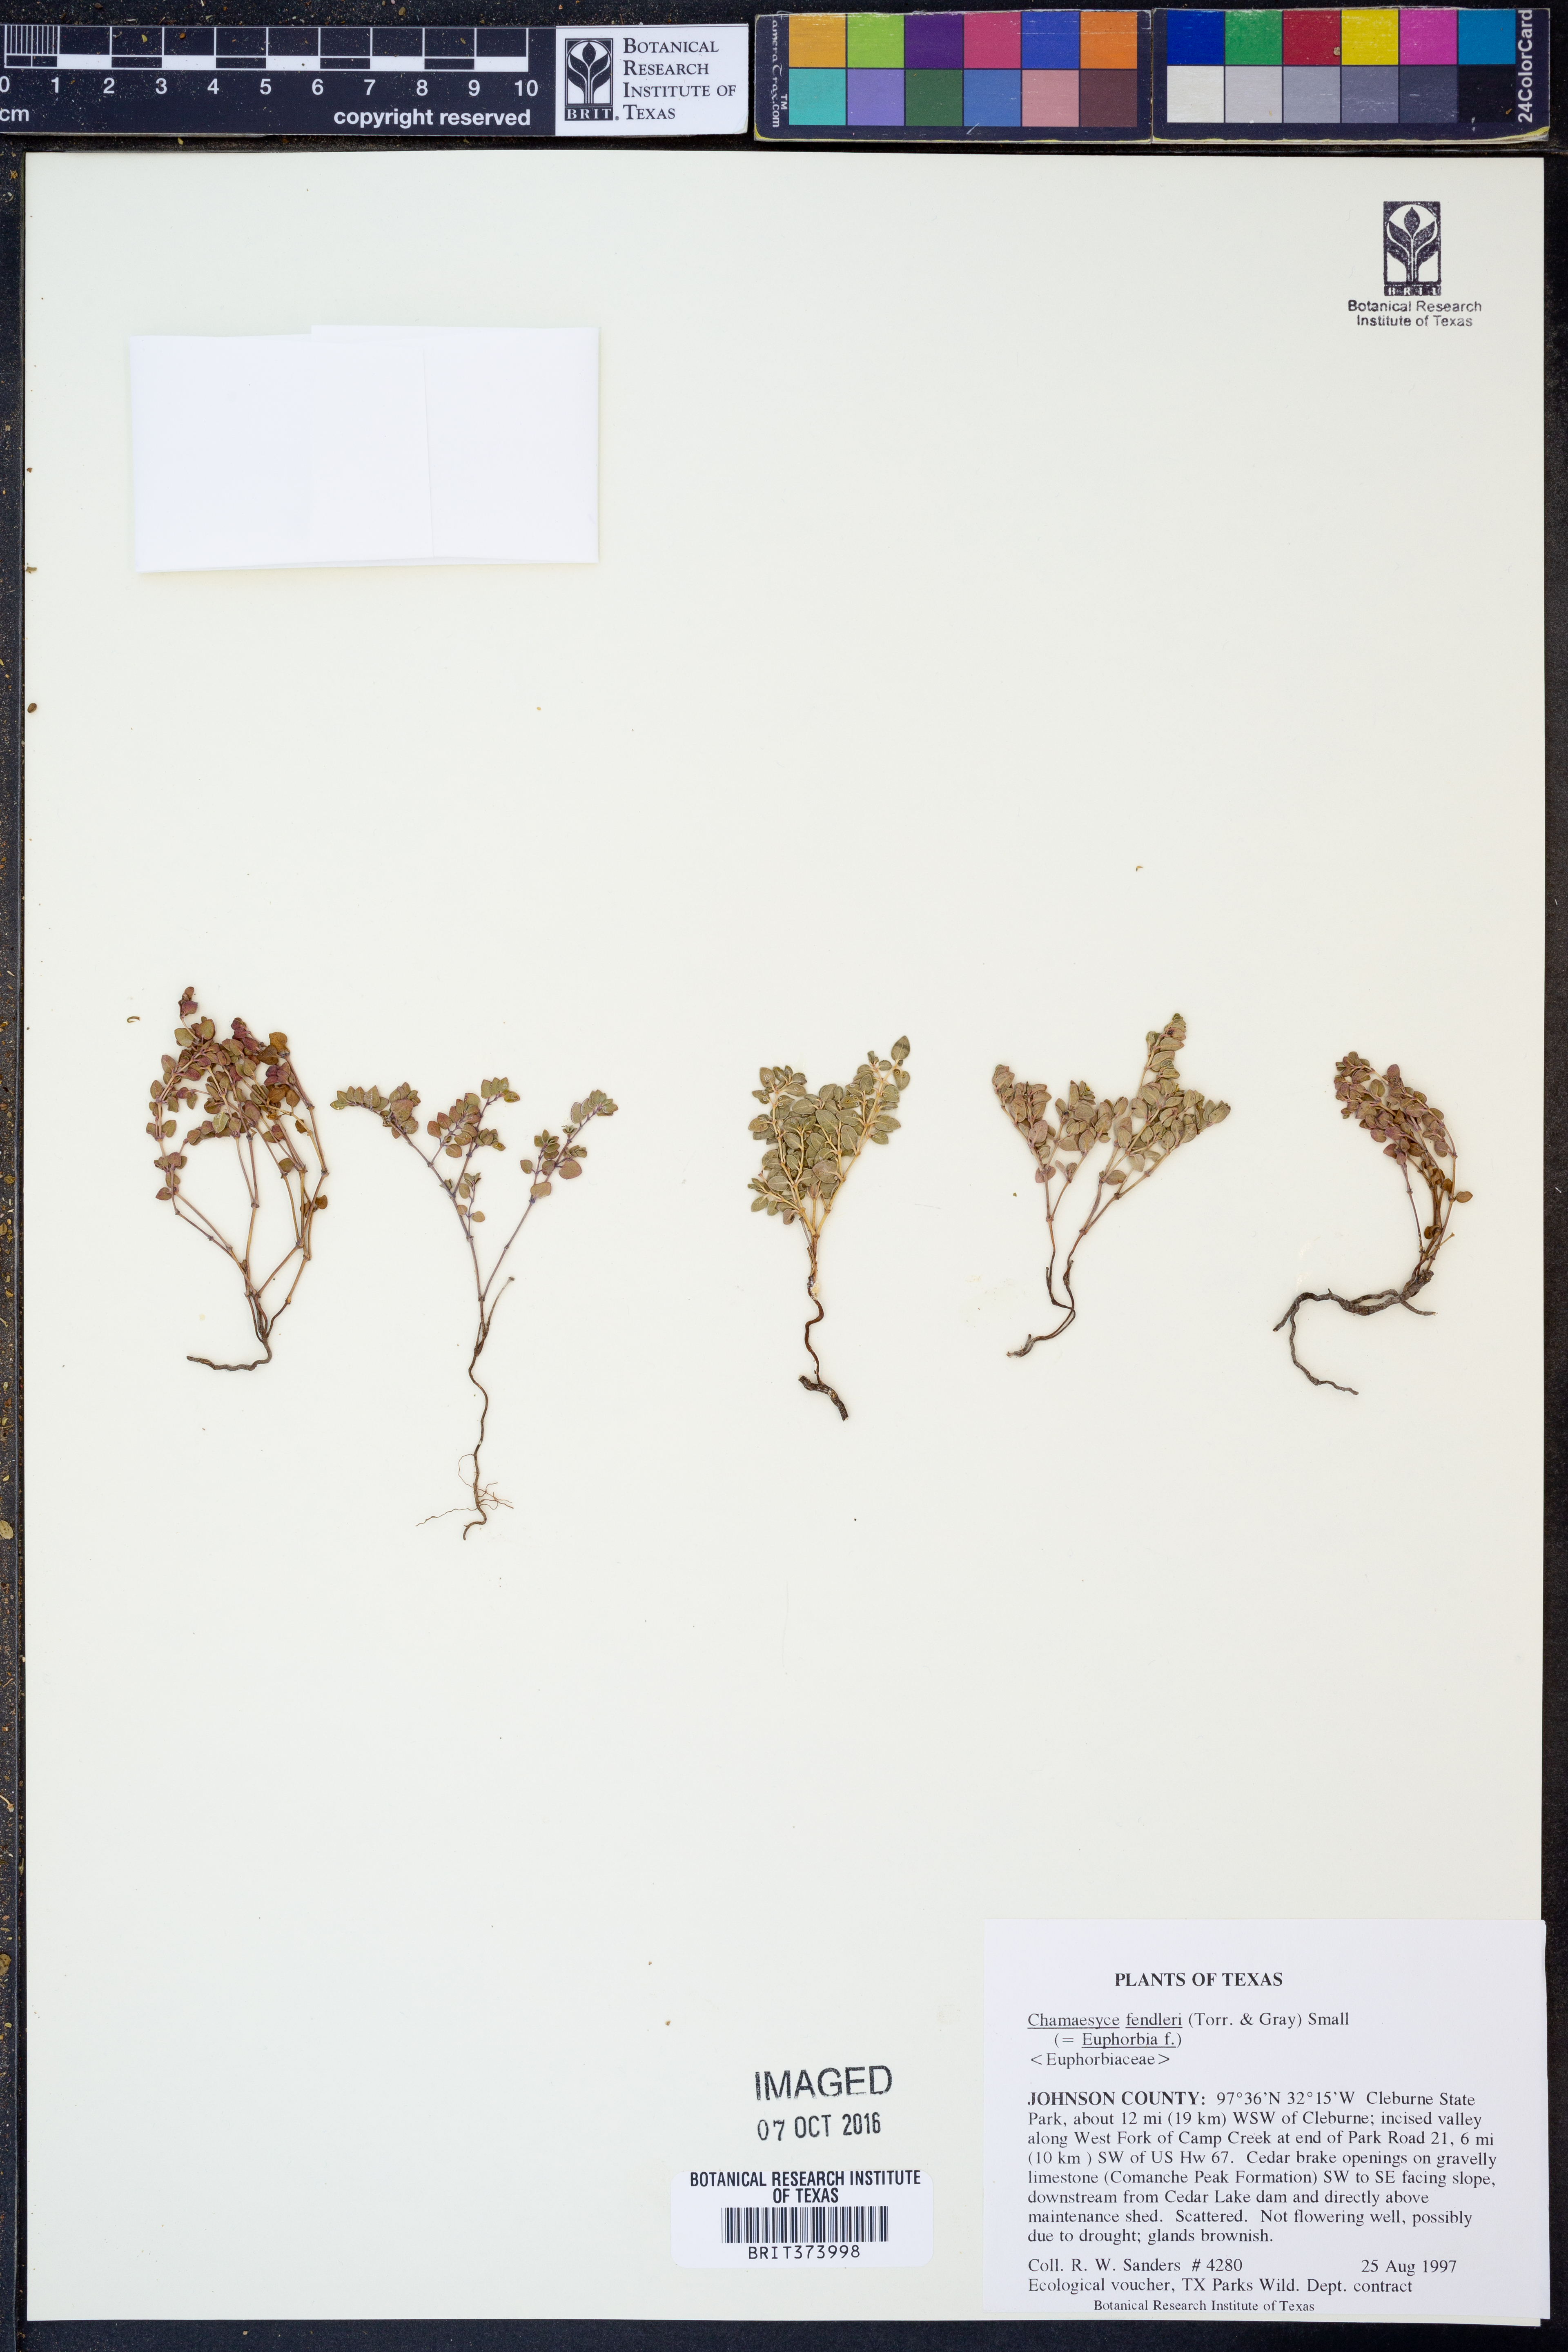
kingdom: Plantae
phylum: Tracheophyta
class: Magnoliopsida
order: Malpighiales
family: Euphorbiaceae
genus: Euphorbia
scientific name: Euphorbia fendleri
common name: Fendler's euphorbia
